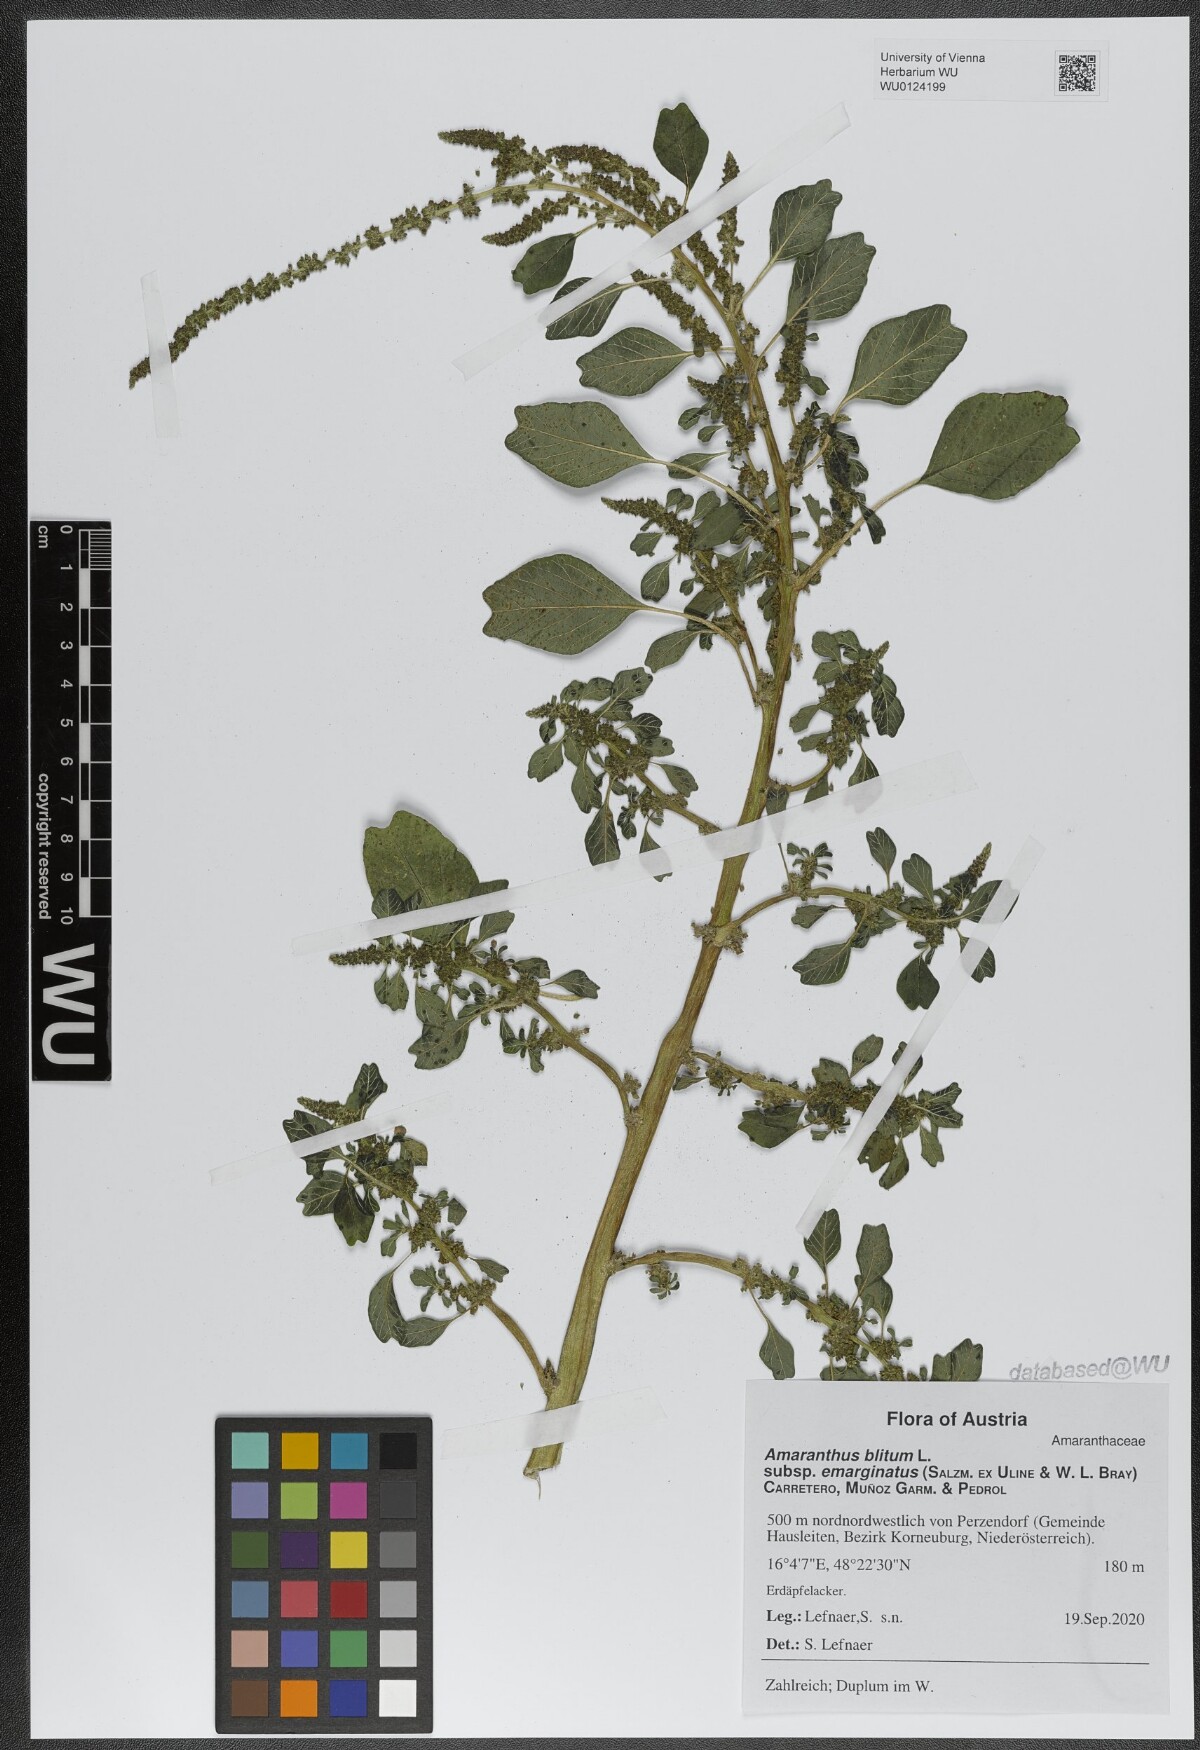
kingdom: Plantae
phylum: Tracheophyta
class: Magnoliopsida
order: Caryophyllales
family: Amaranthaceae
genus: Amaranthus
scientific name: Amaranthus emarginatus
